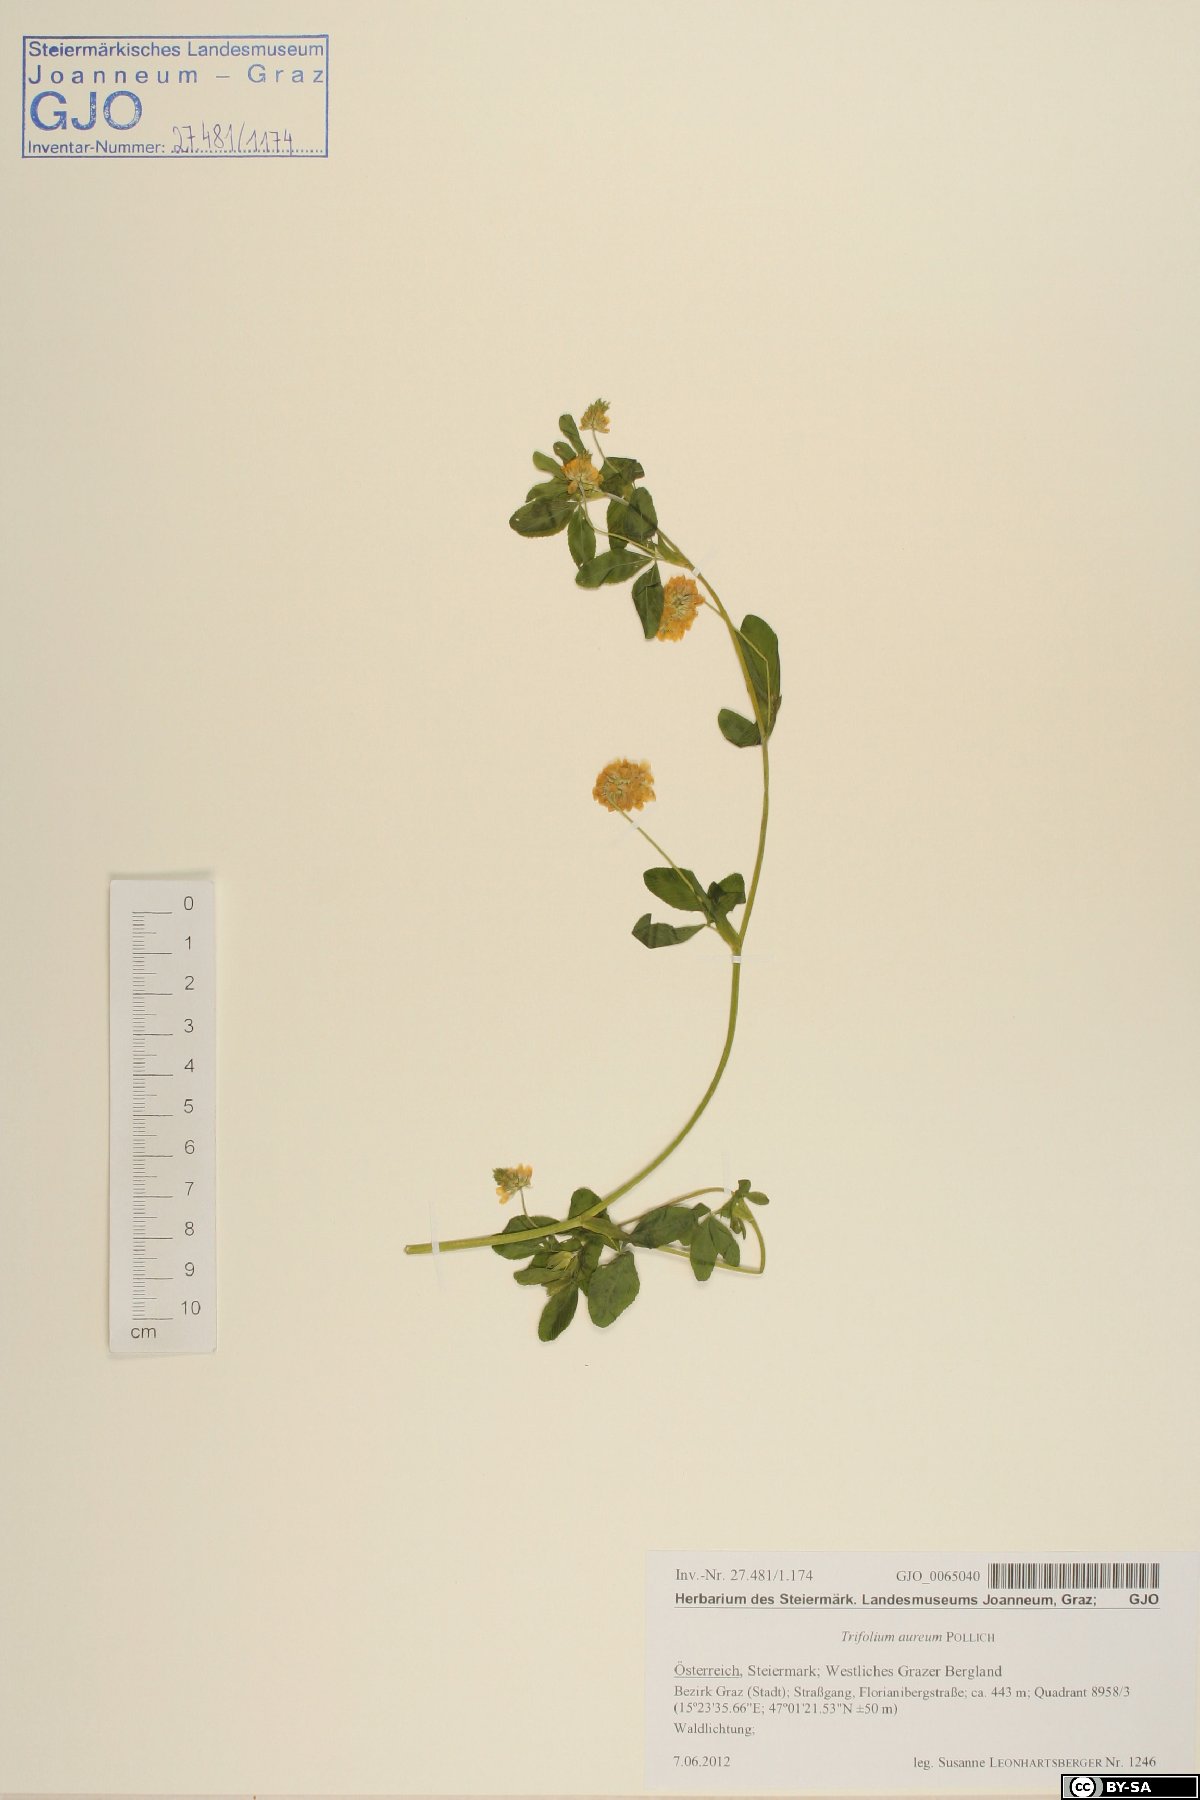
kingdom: Plantae
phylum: Tracheophyta
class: Magnoliopsida
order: Fabales
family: Fabaceae
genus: Trifolium
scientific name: Trifolium aureum
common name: Golden clover
